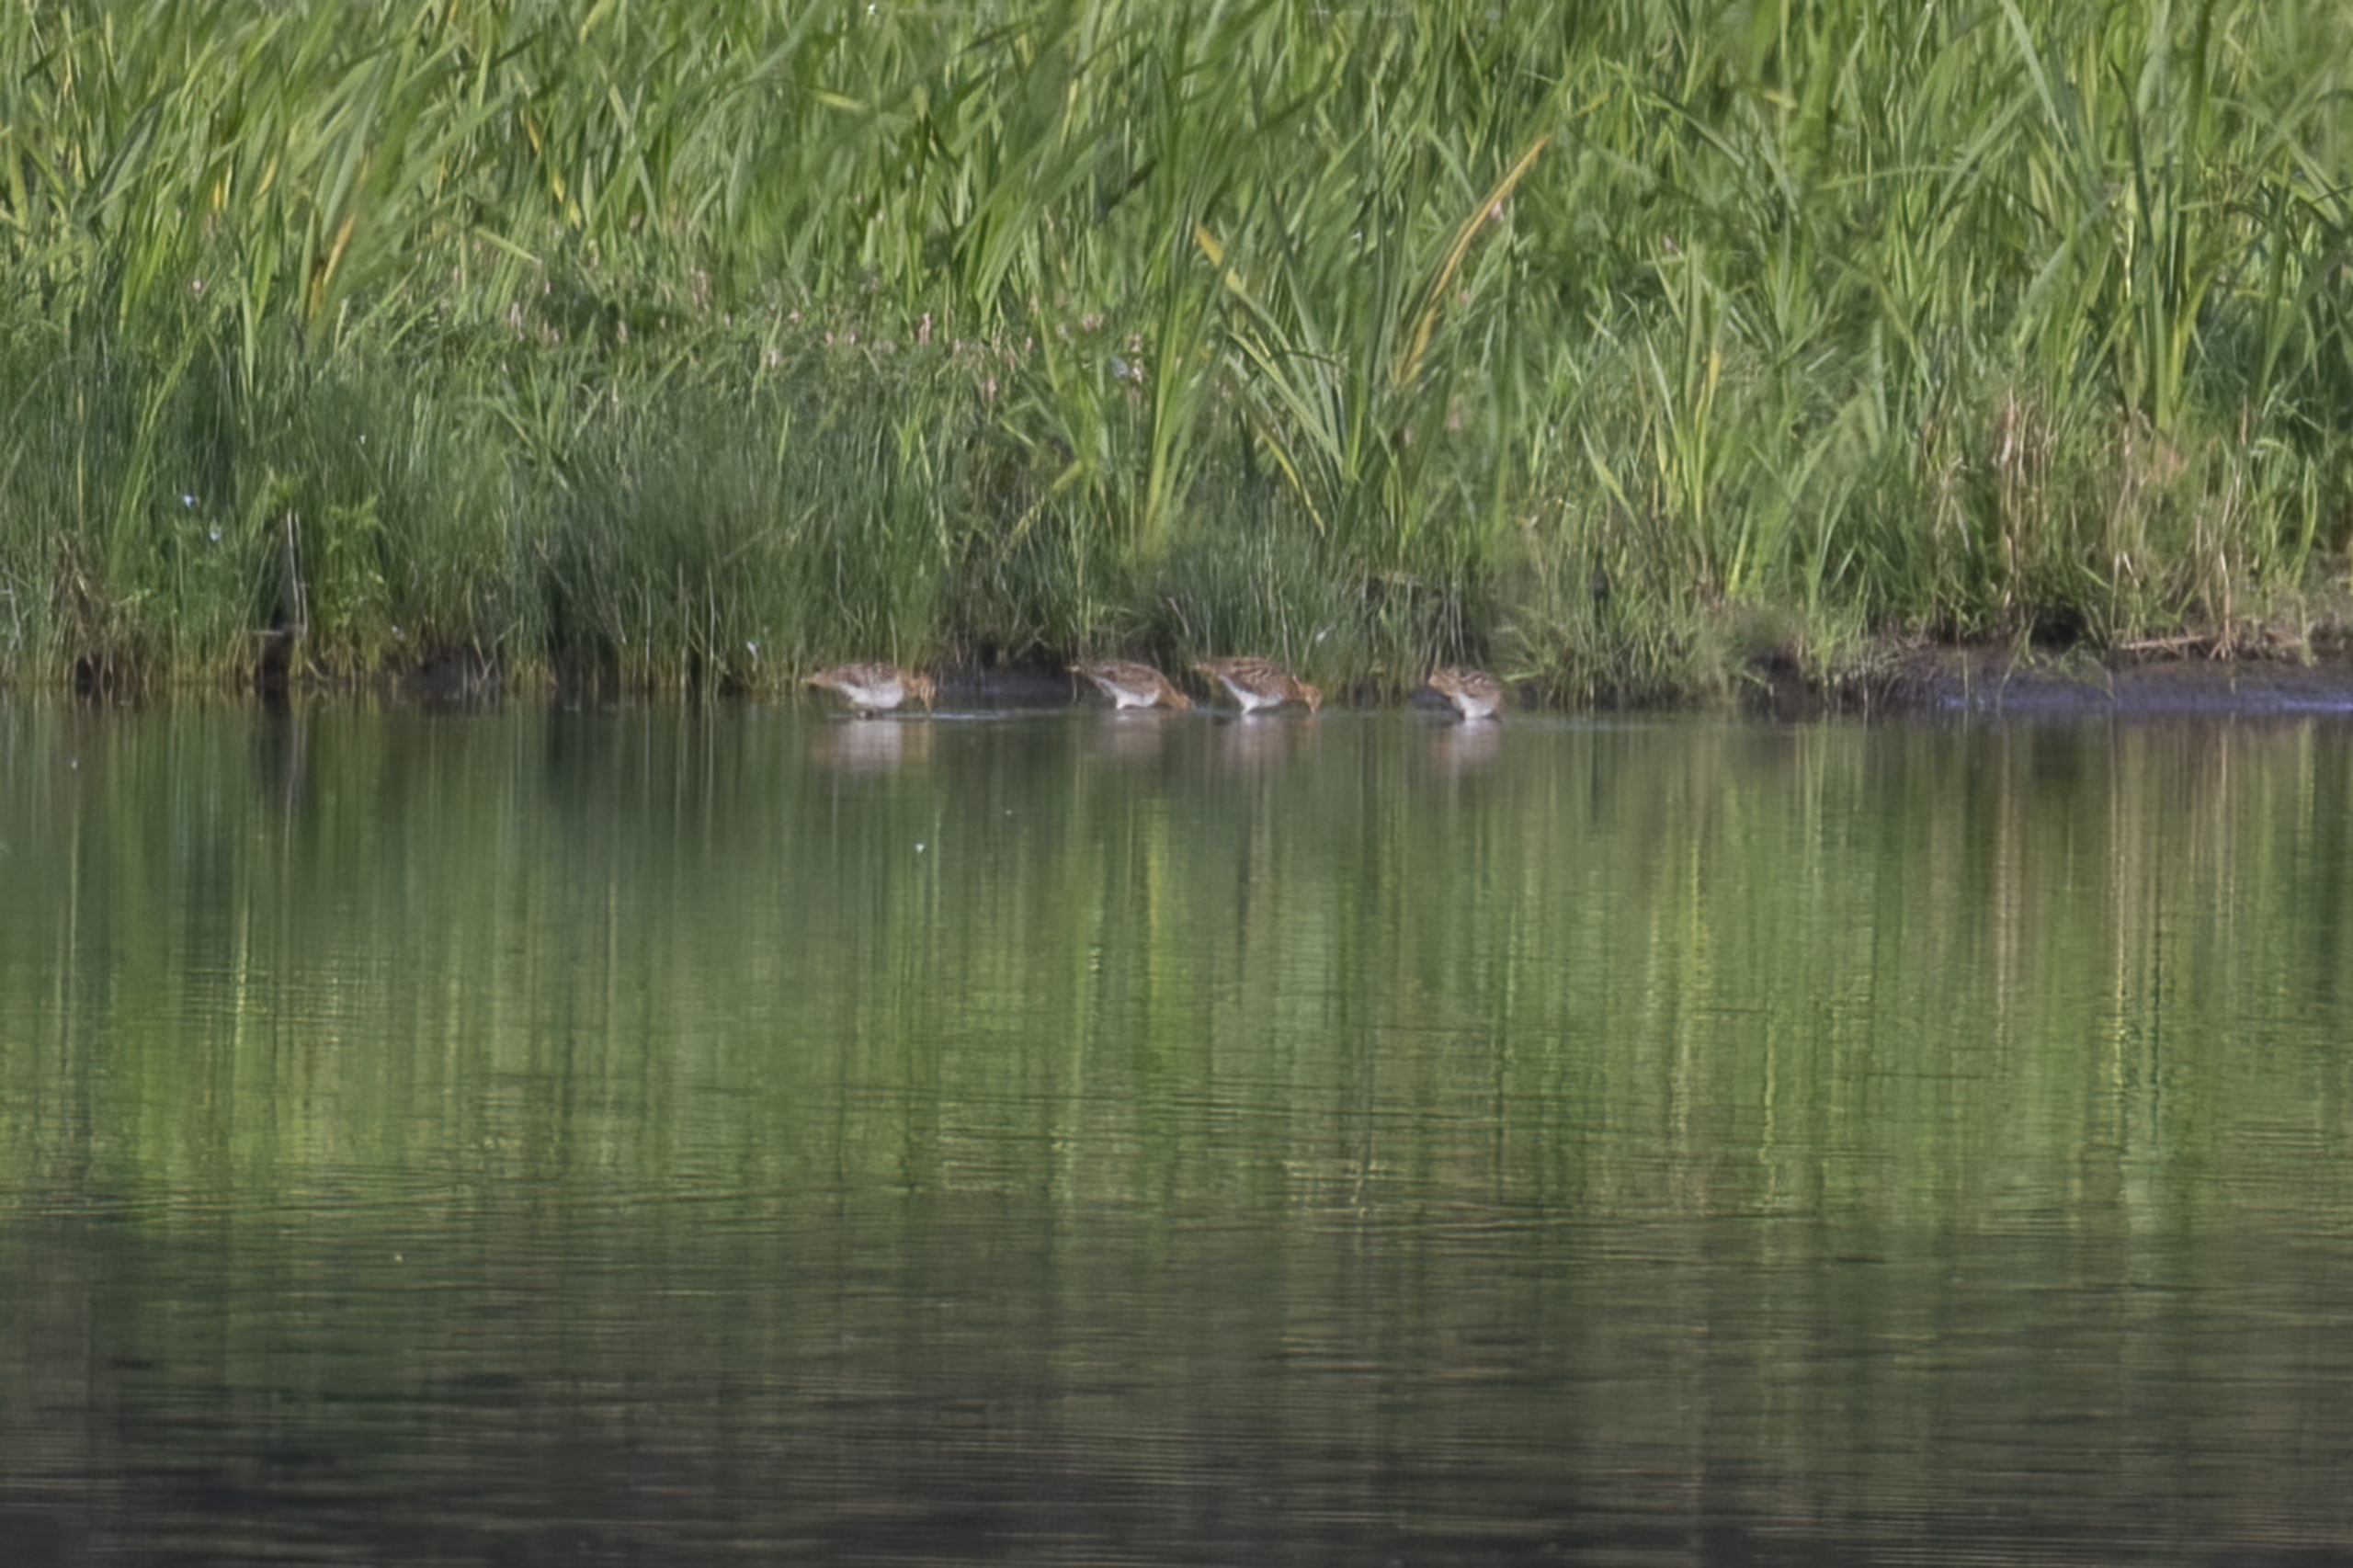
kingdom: Animalia
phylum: Chordata
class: Aves
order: Charadriiformes
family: Scolopacidae
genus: Gallinago
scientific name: Gallinago gallinago
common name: Dobbeltbekkasin
